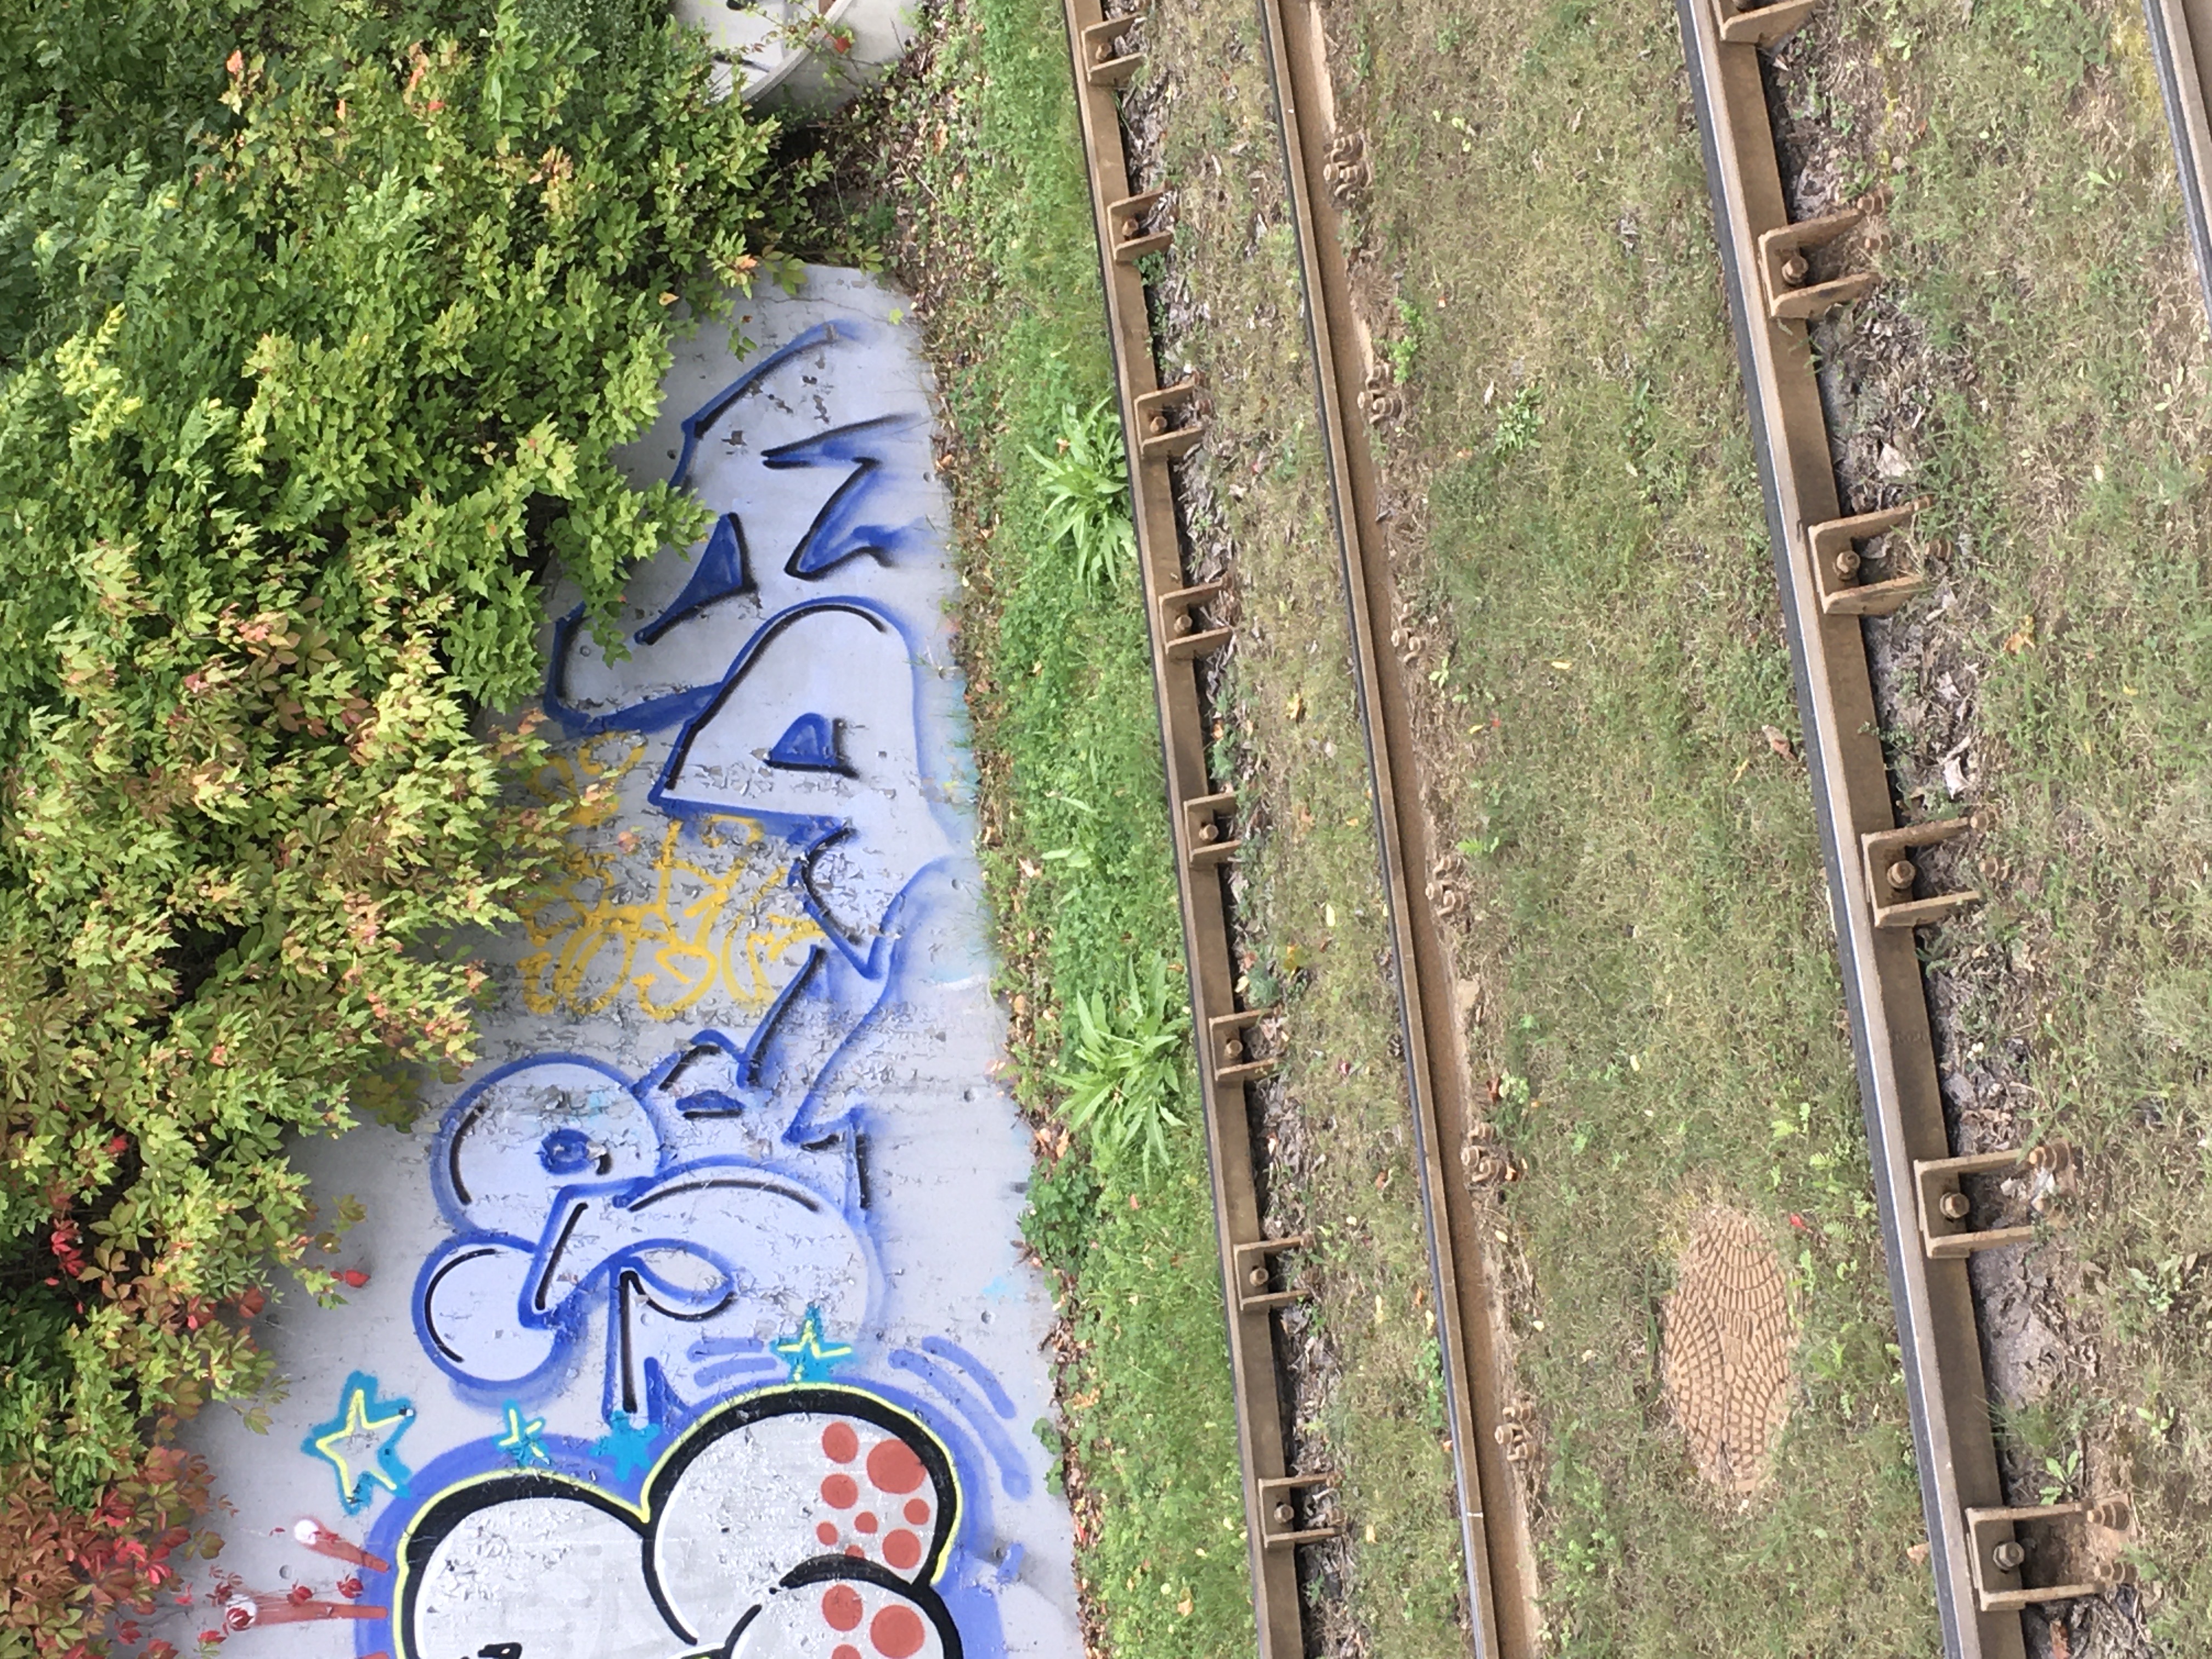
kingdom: Plantae
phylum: Tracheophyta
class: Magnoliopsida
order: Brassicales
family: Brassicaceae
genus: Bunias
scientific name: Bunias orientalis
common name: russekål
